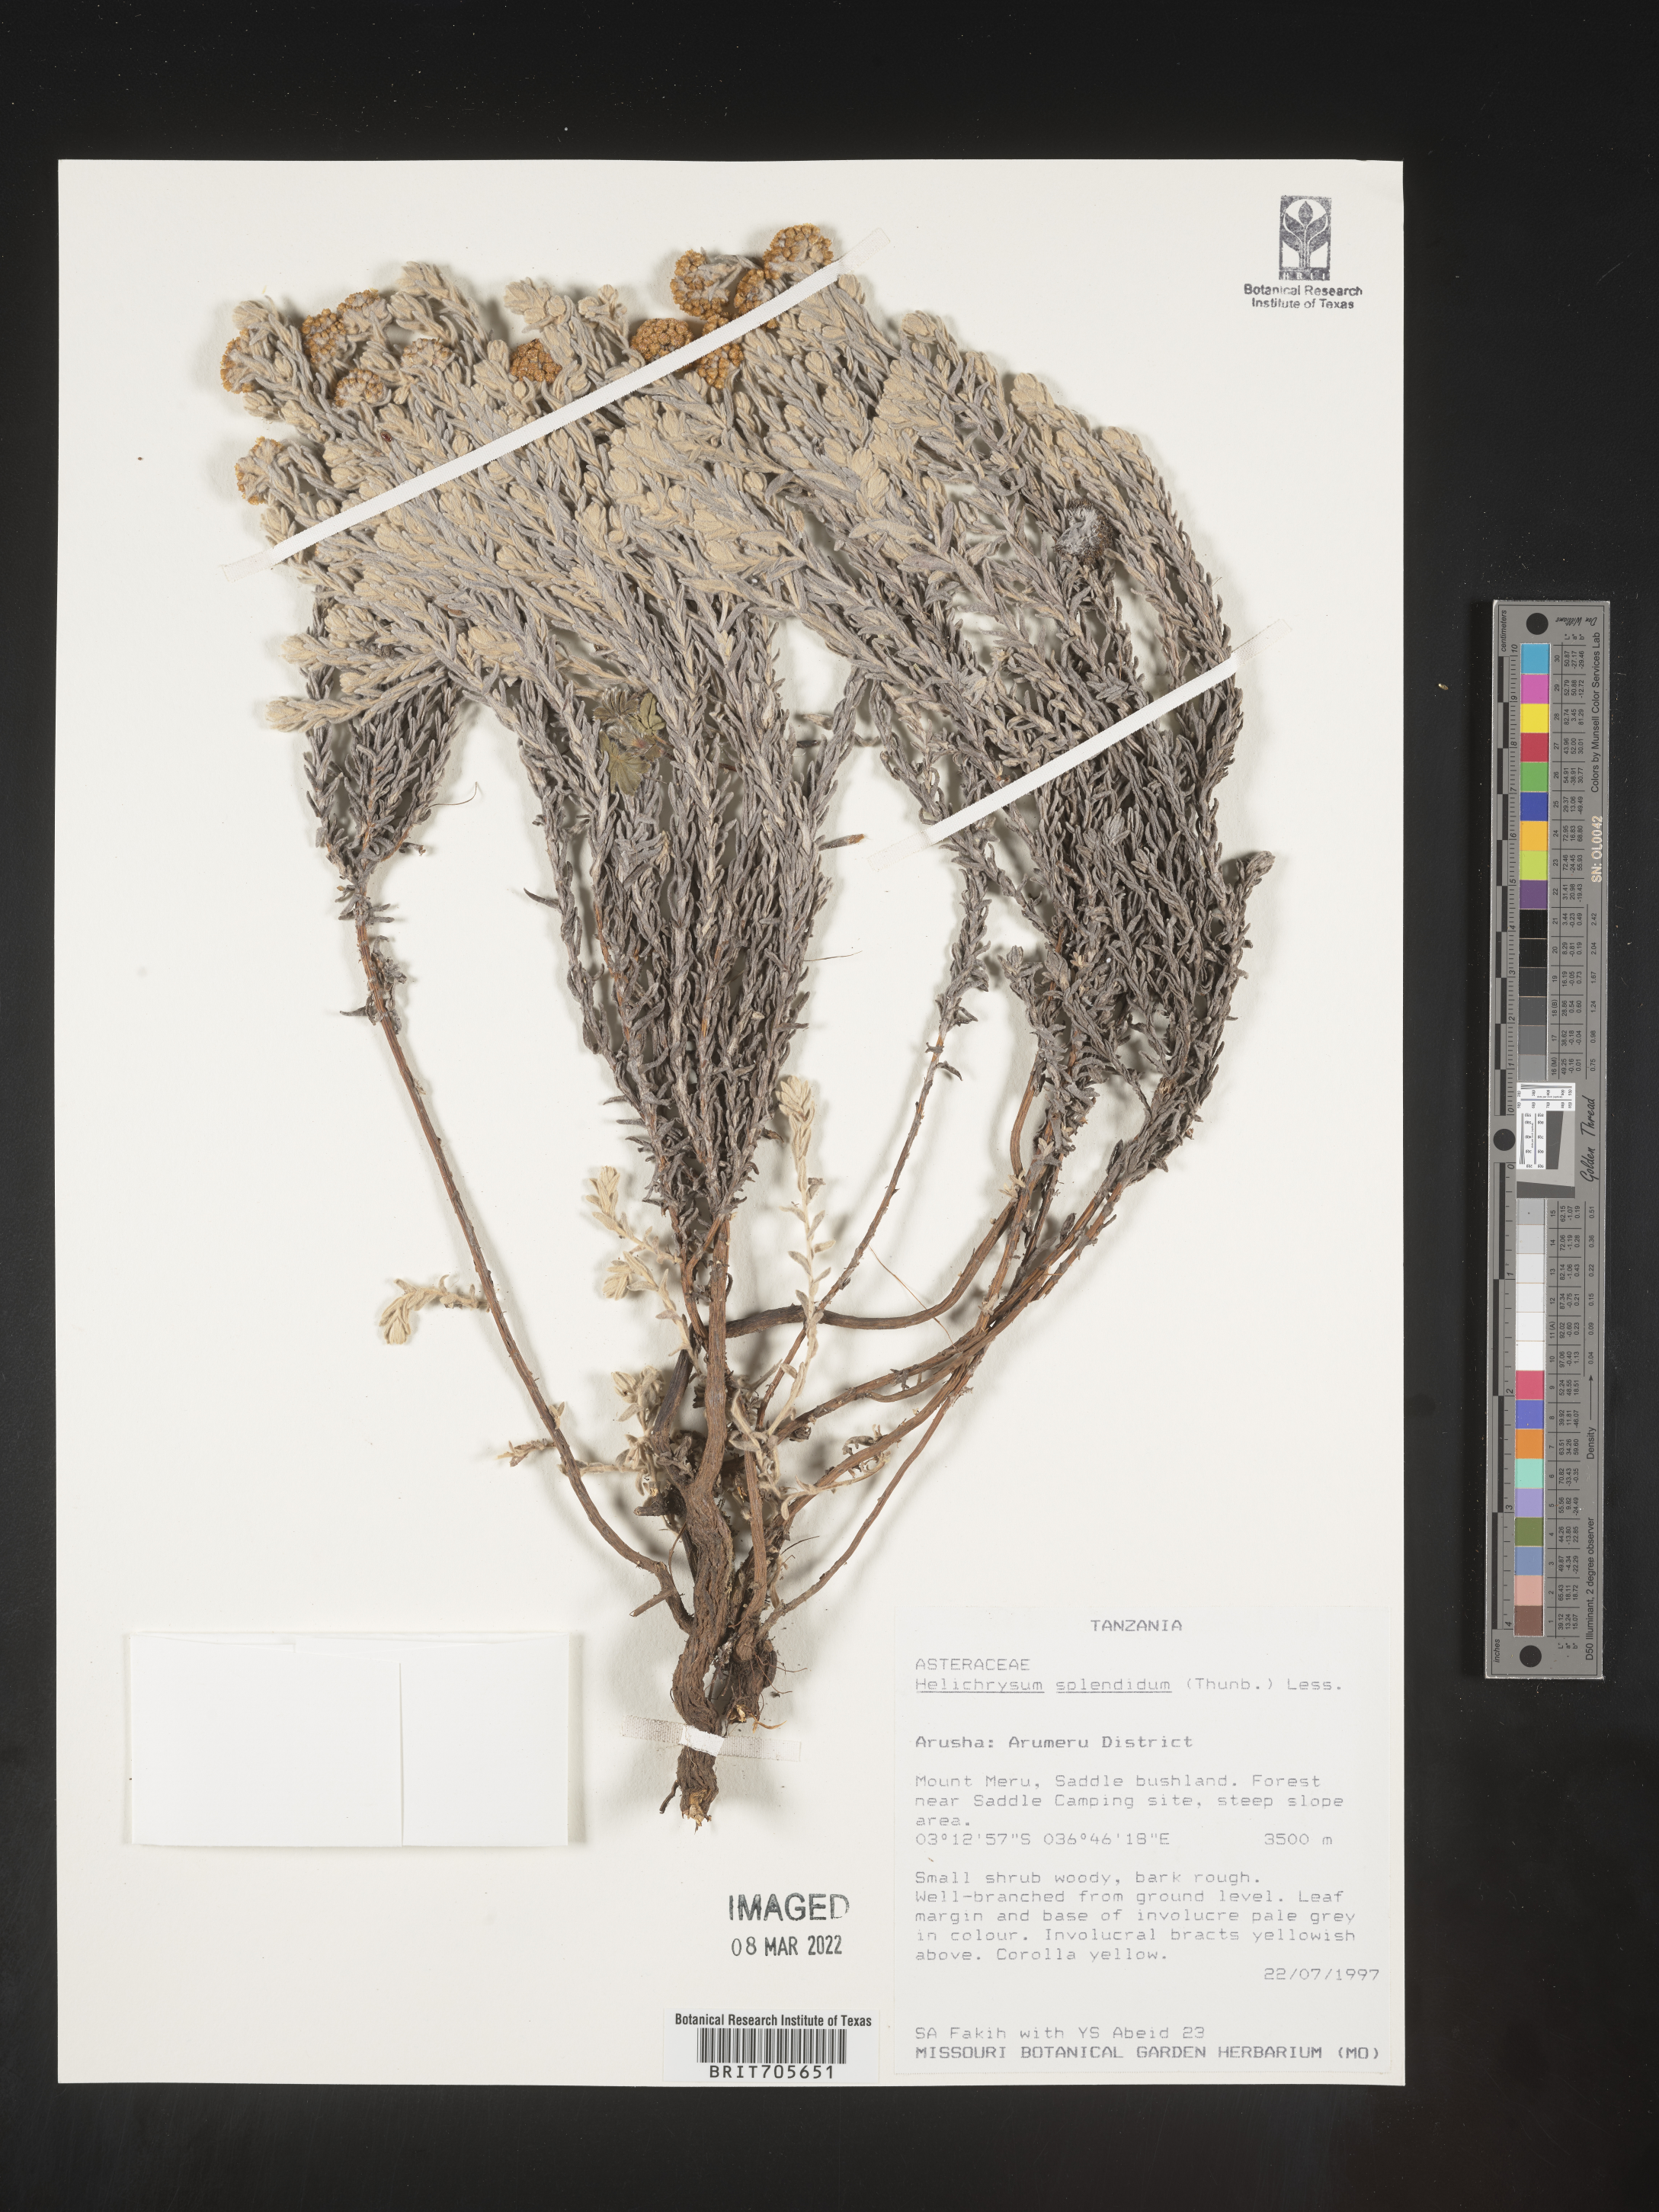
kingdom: Plantae
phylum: Tracheophyta
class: Magnoliopsida
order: Asterales
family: Asteraceae
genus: Helichrysum
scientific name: Helichrysum
